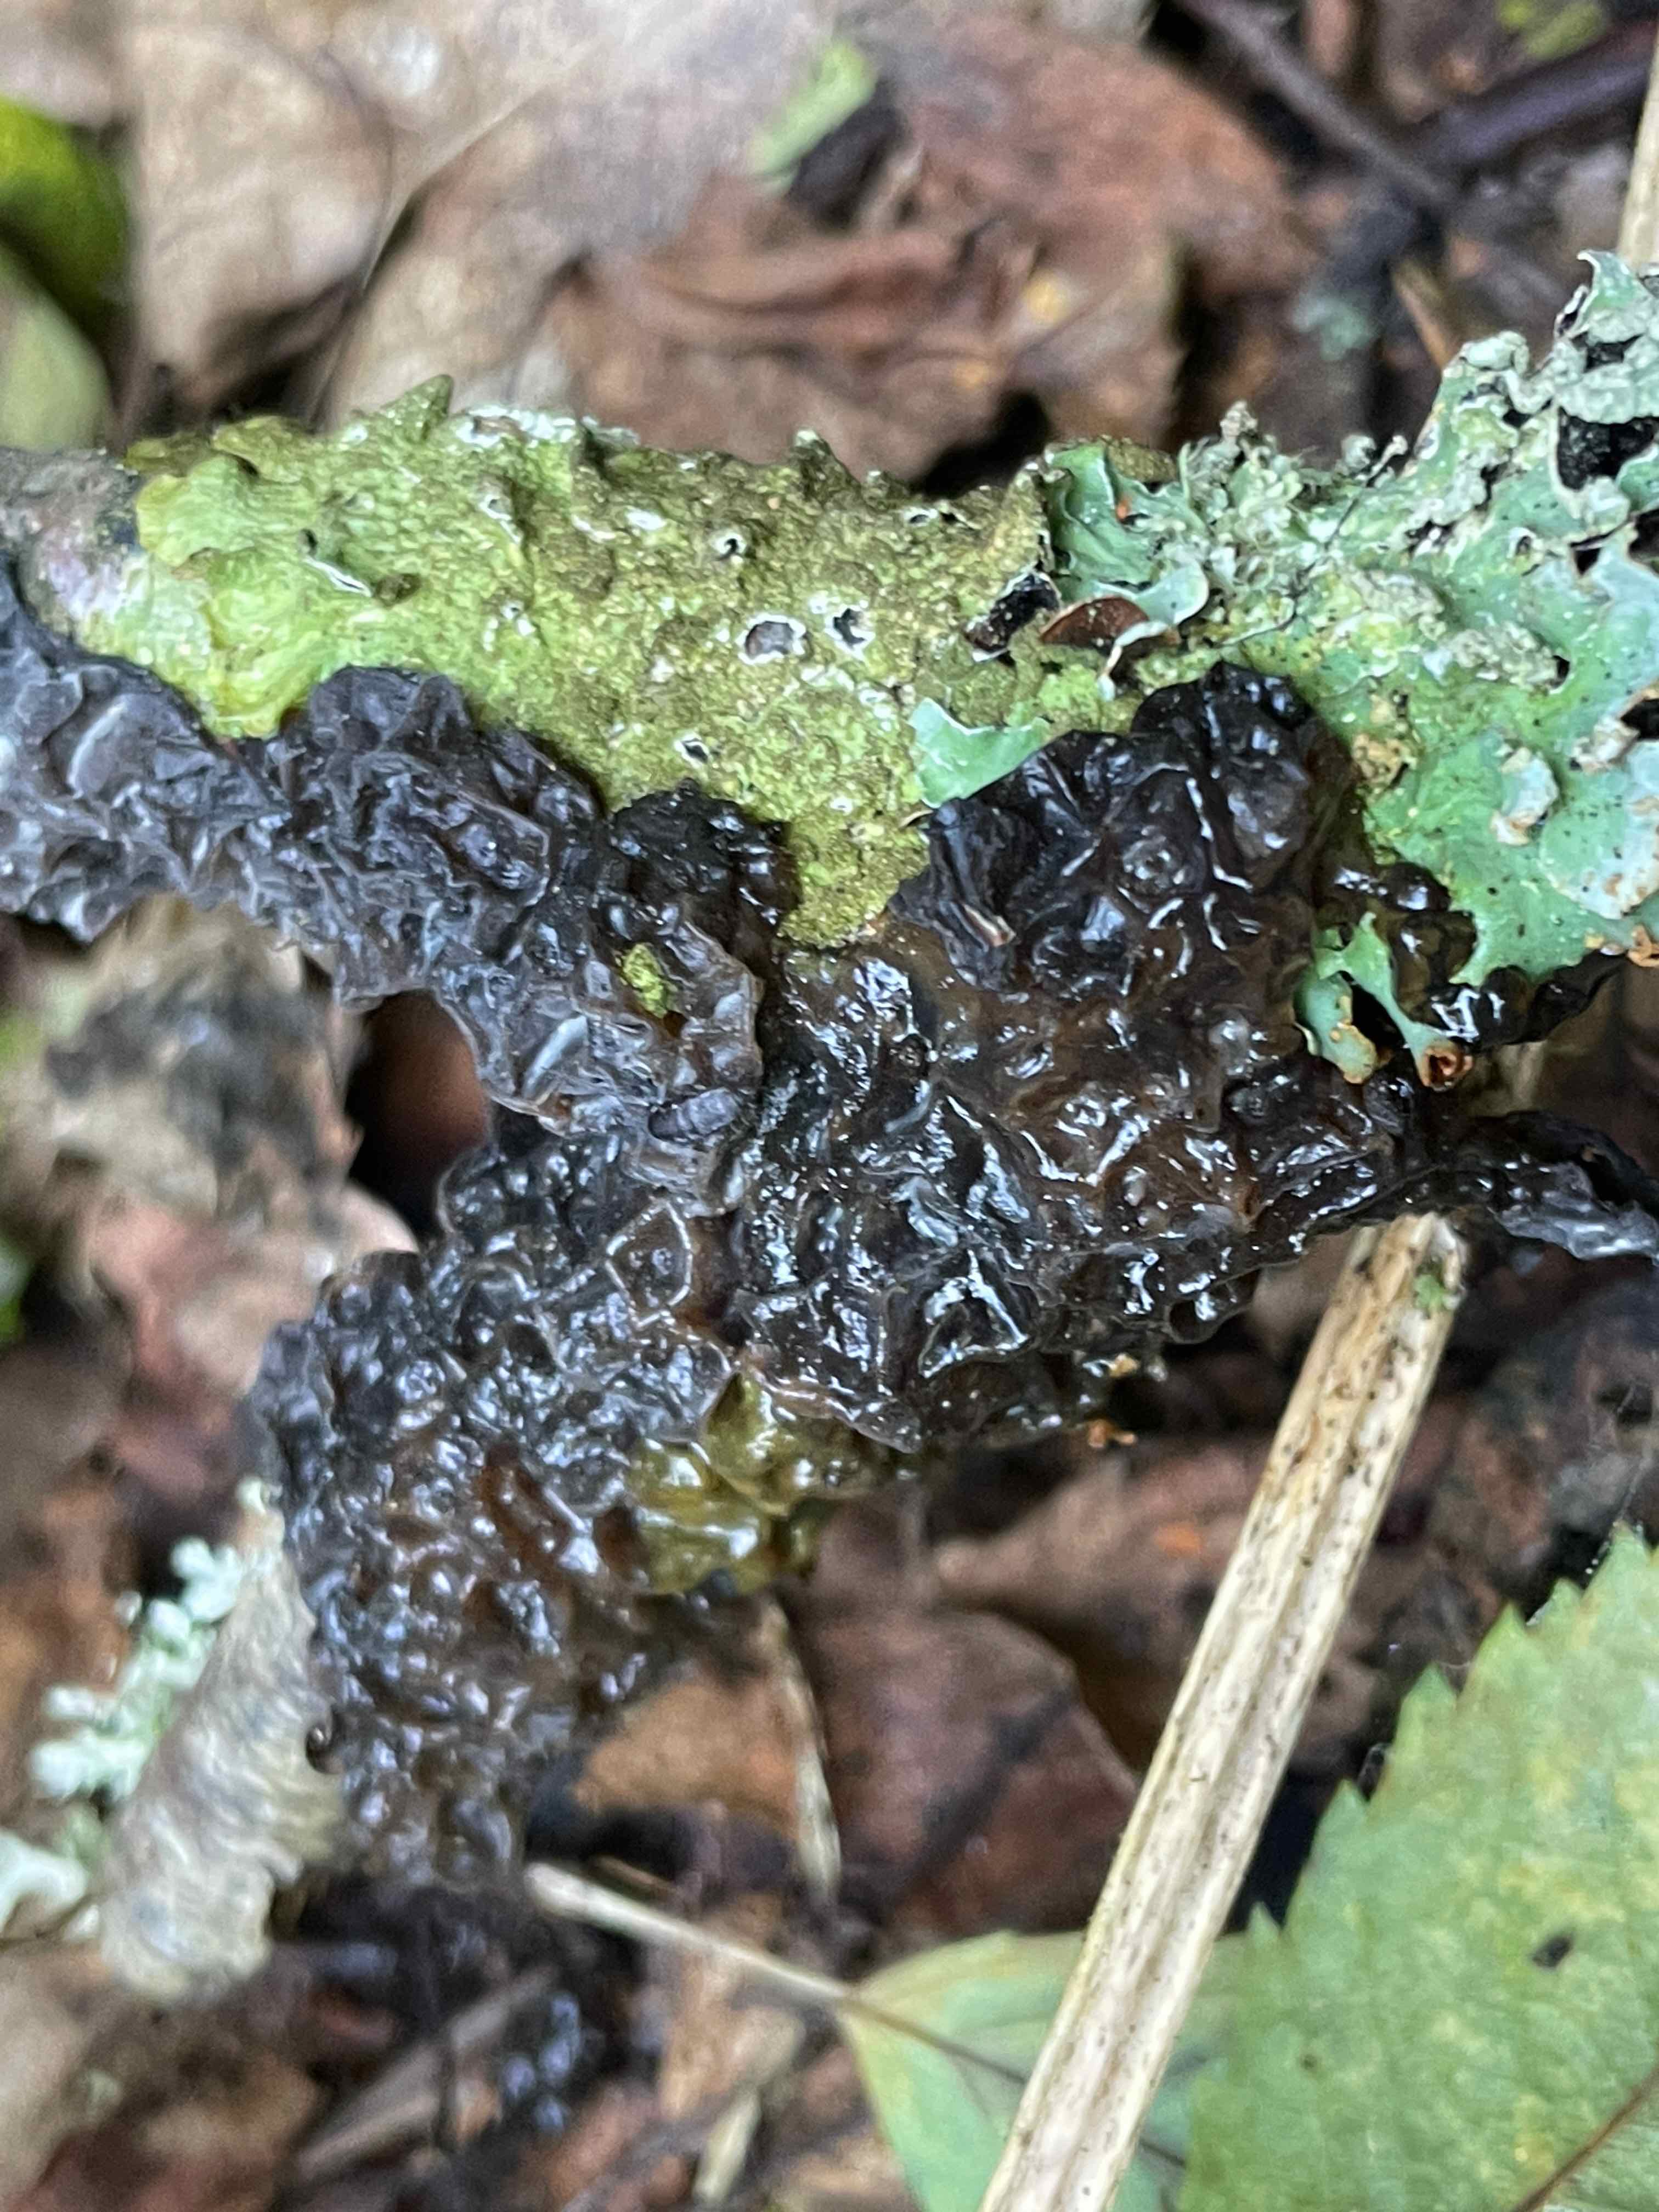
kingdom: Fungi
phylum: Basidiomycota
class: Agaricomycetes
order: Auriculariales
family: Auriculariaceae
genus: Exidia
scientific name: Exidia nigricans
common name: almindelig bævretop
